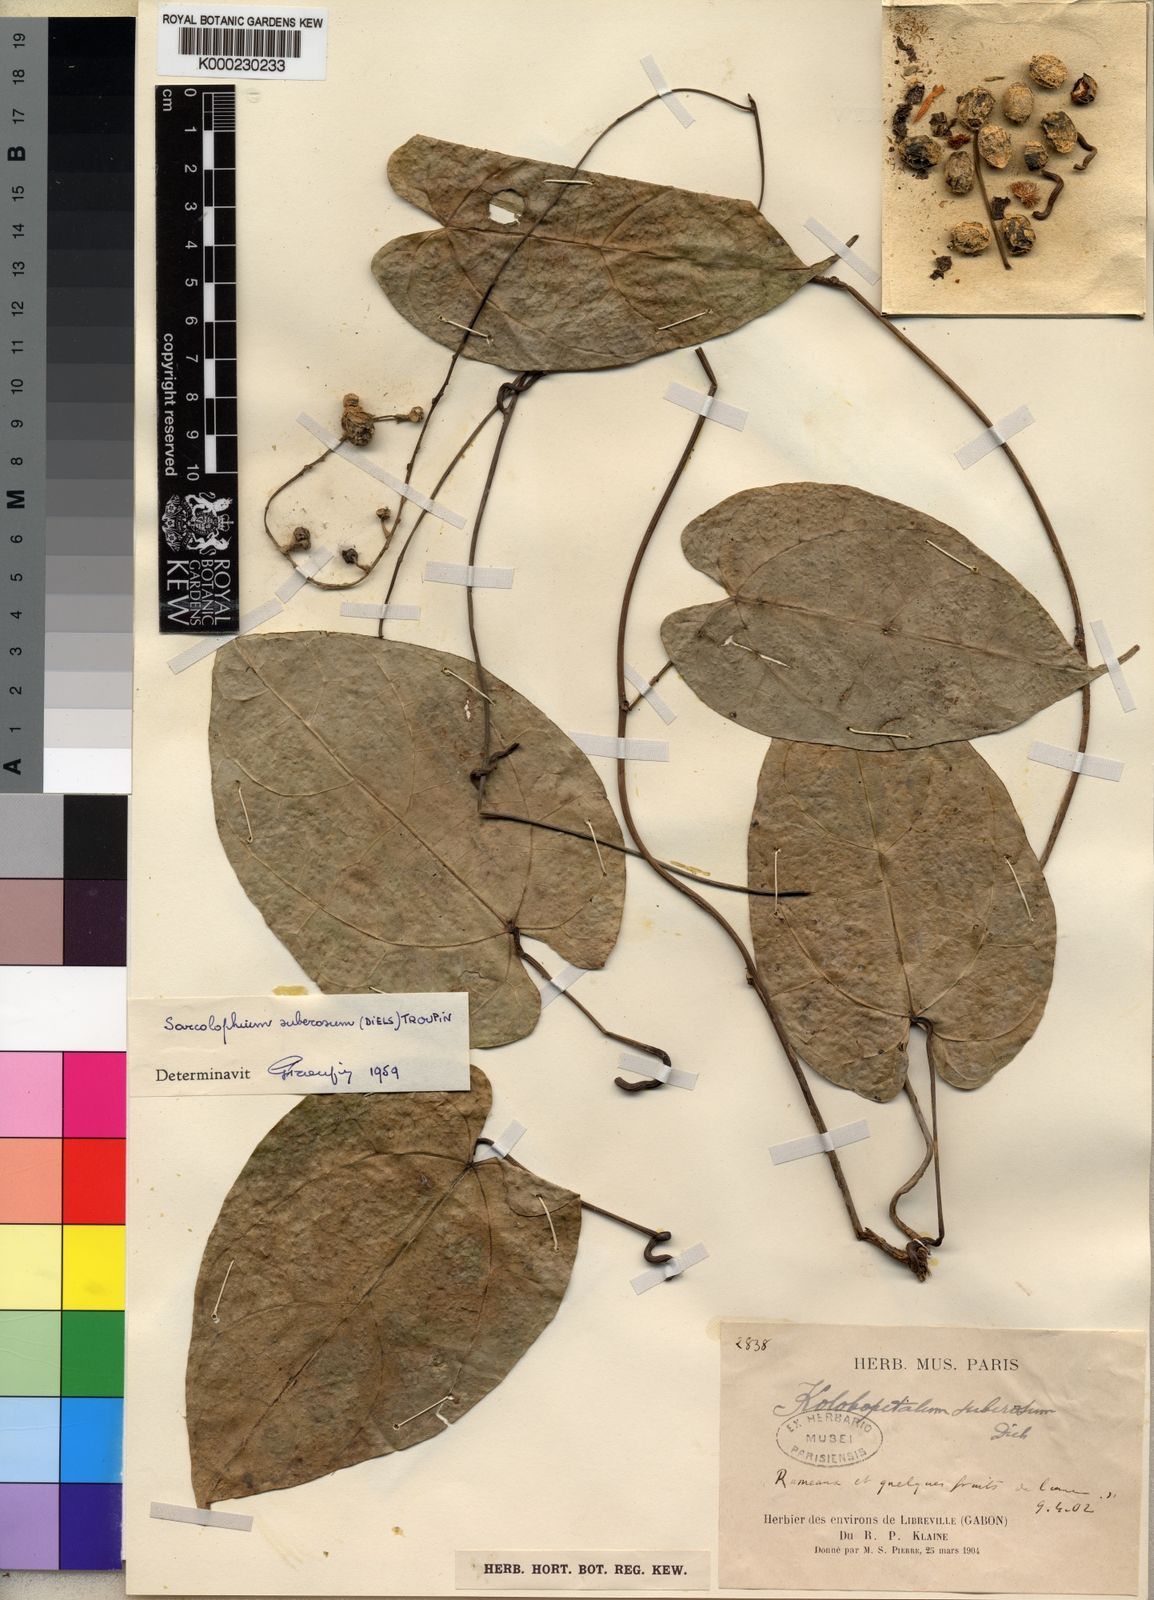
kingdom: Plantae
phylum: Tracheophyta
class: Magnoliopsida
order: Ranunculales
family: Menispermaceae
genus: Sarcolophium
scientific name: Sarcolophium suberosum
